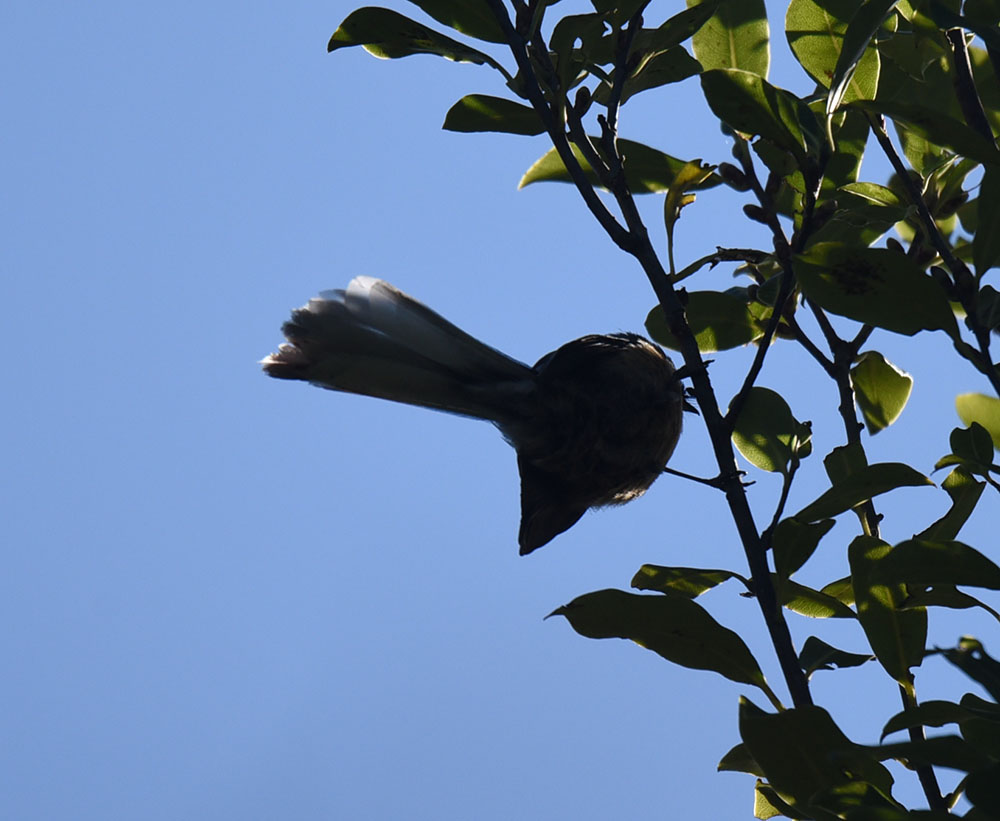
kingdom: Animalia
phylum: Chordata
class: Aves
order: Passeriformes
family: Rhipiduridae
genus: Rhipidura
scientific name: Rhipidura fuliginosa
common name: New zealand fantail
